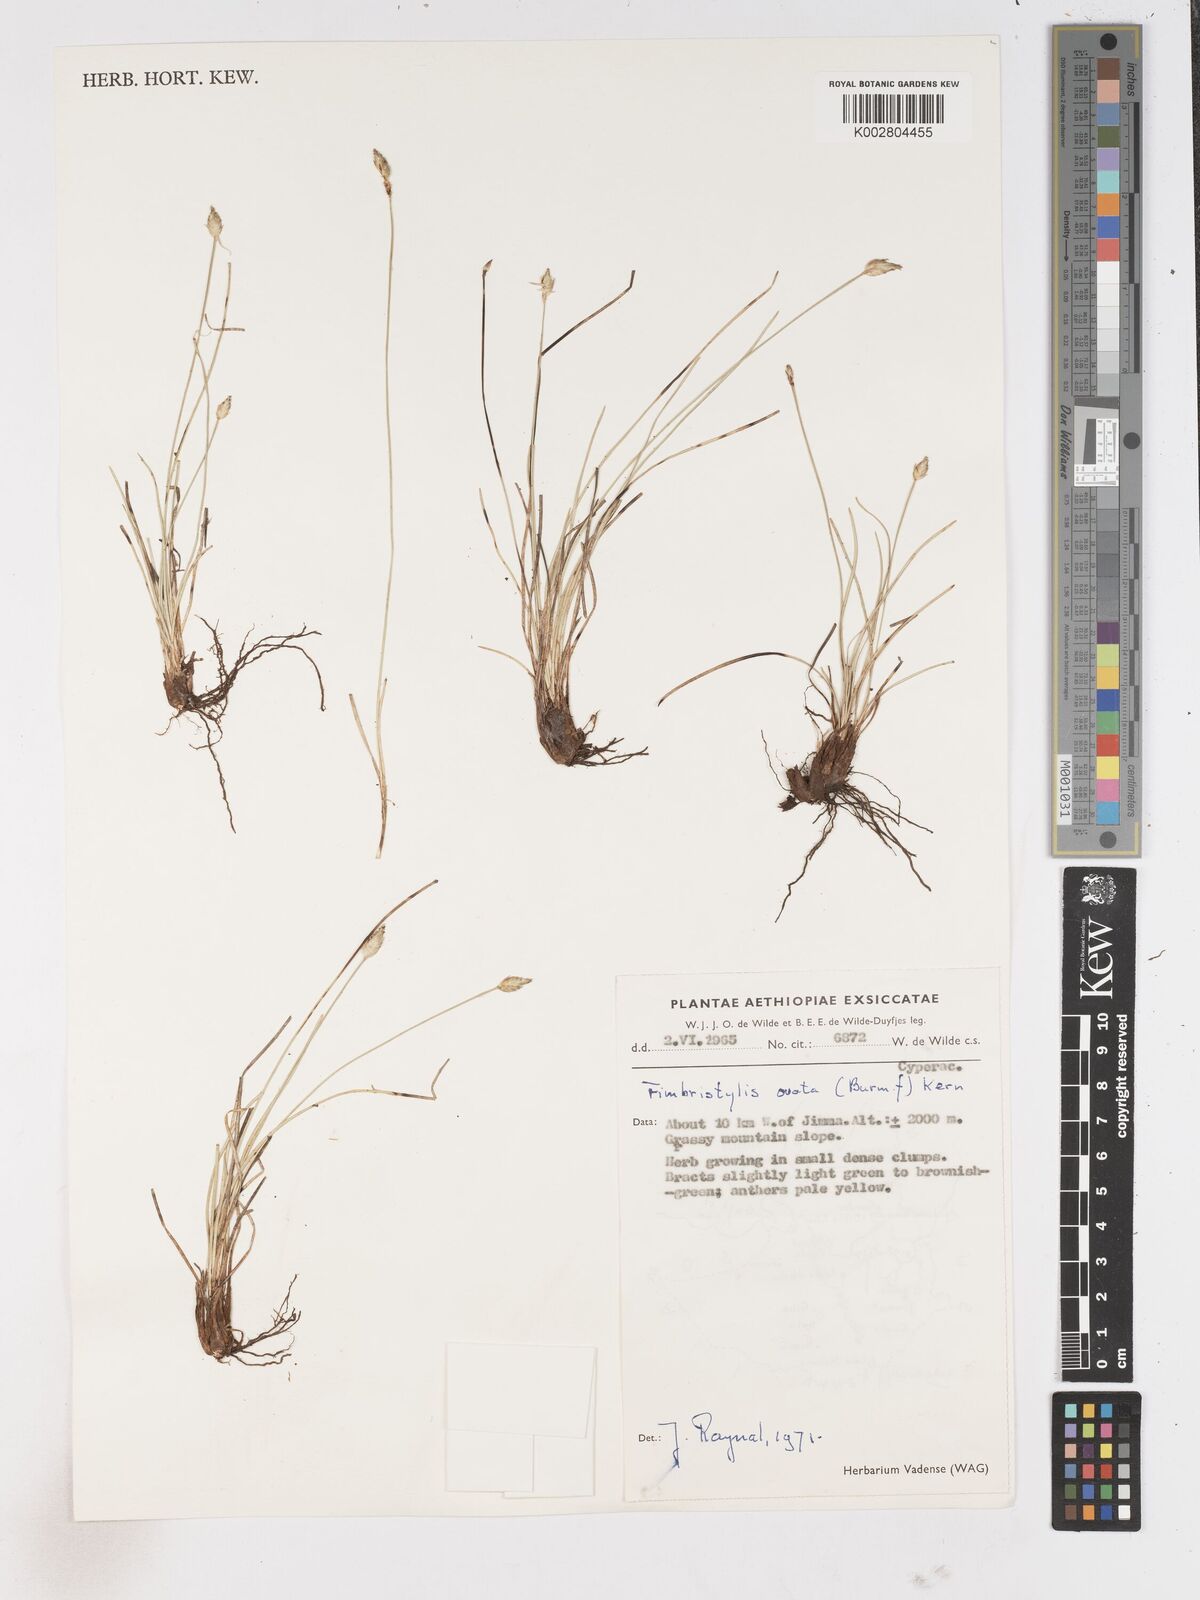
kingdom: Plantae
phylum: Tracheophyta
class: Liliopsida
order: Poales
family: Cyperaceae
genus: Abildgaardia
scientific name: Abildgaardia ovata
